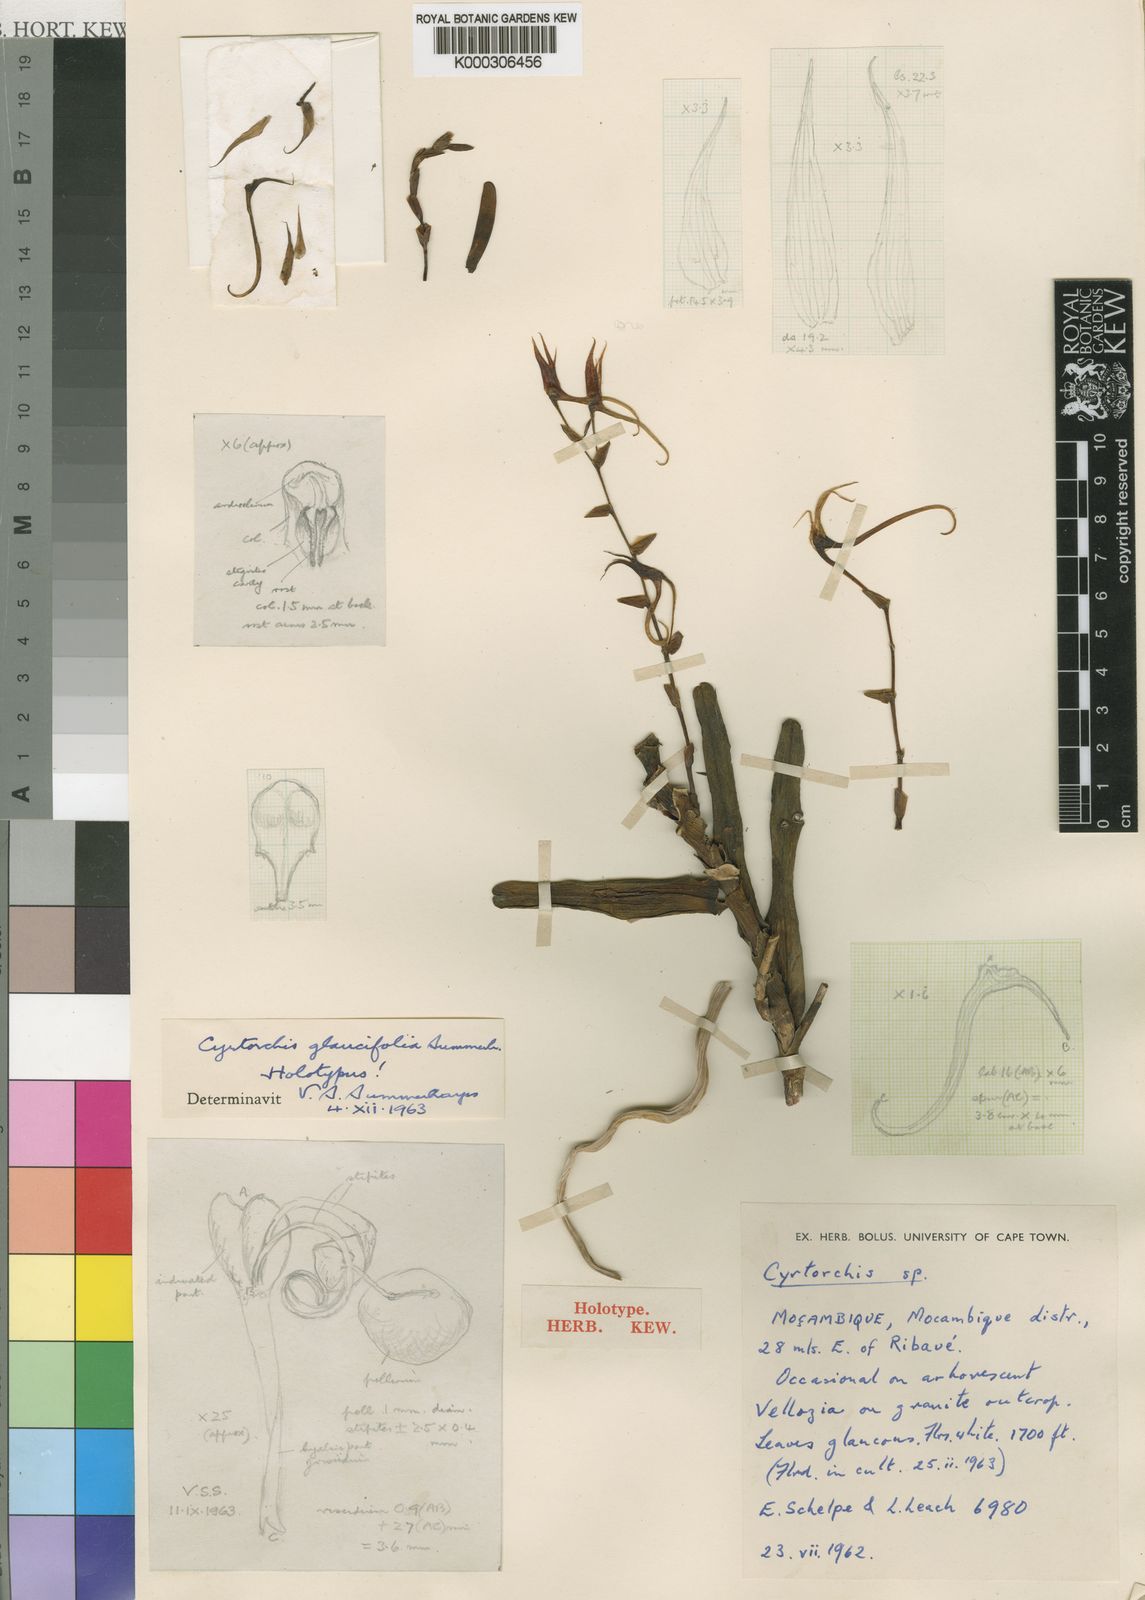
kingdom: Plantae
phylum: Tracheophyta
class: Liliopsida
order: Asparagales
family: Orchidaceae
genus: Cyrtorchis
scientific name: Cyrtorchis glaucifolia
